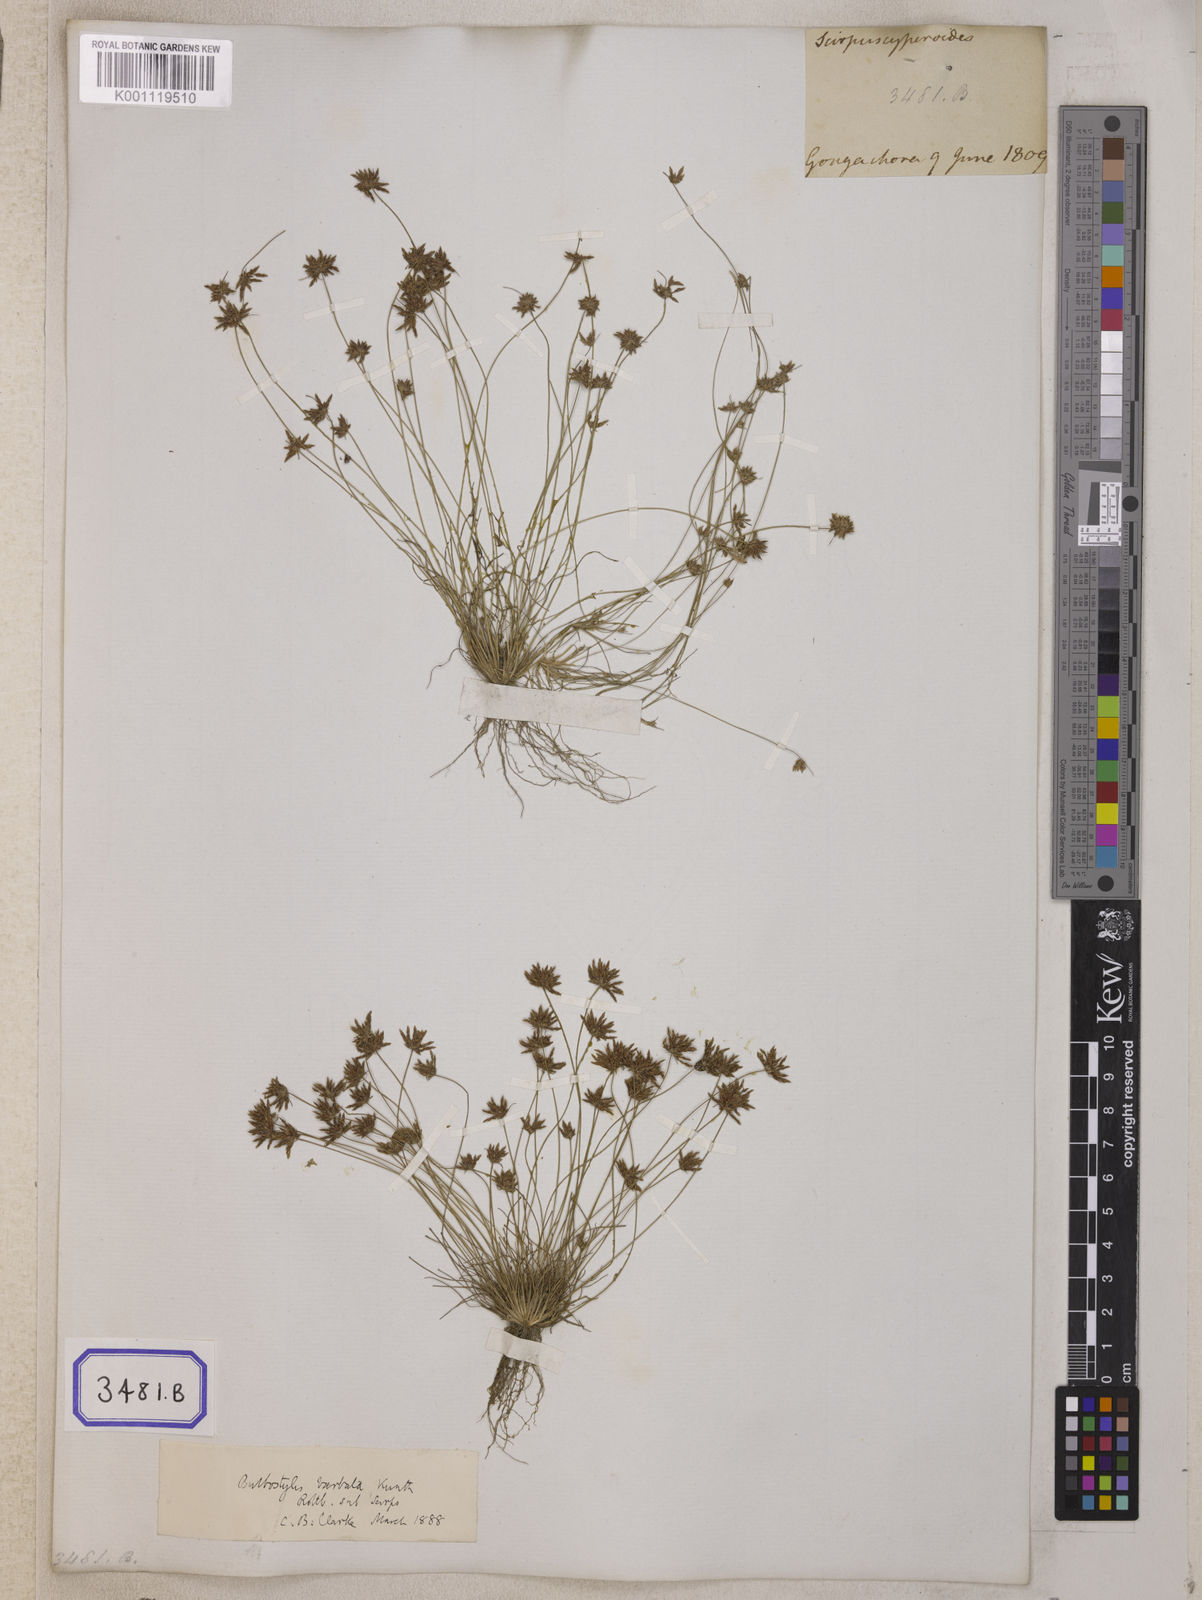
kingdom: Plantae
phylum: Tracheophyta
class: Liliopsida
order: Poales
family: Cyperaceae
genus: Isolepis
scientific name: Isolepis
